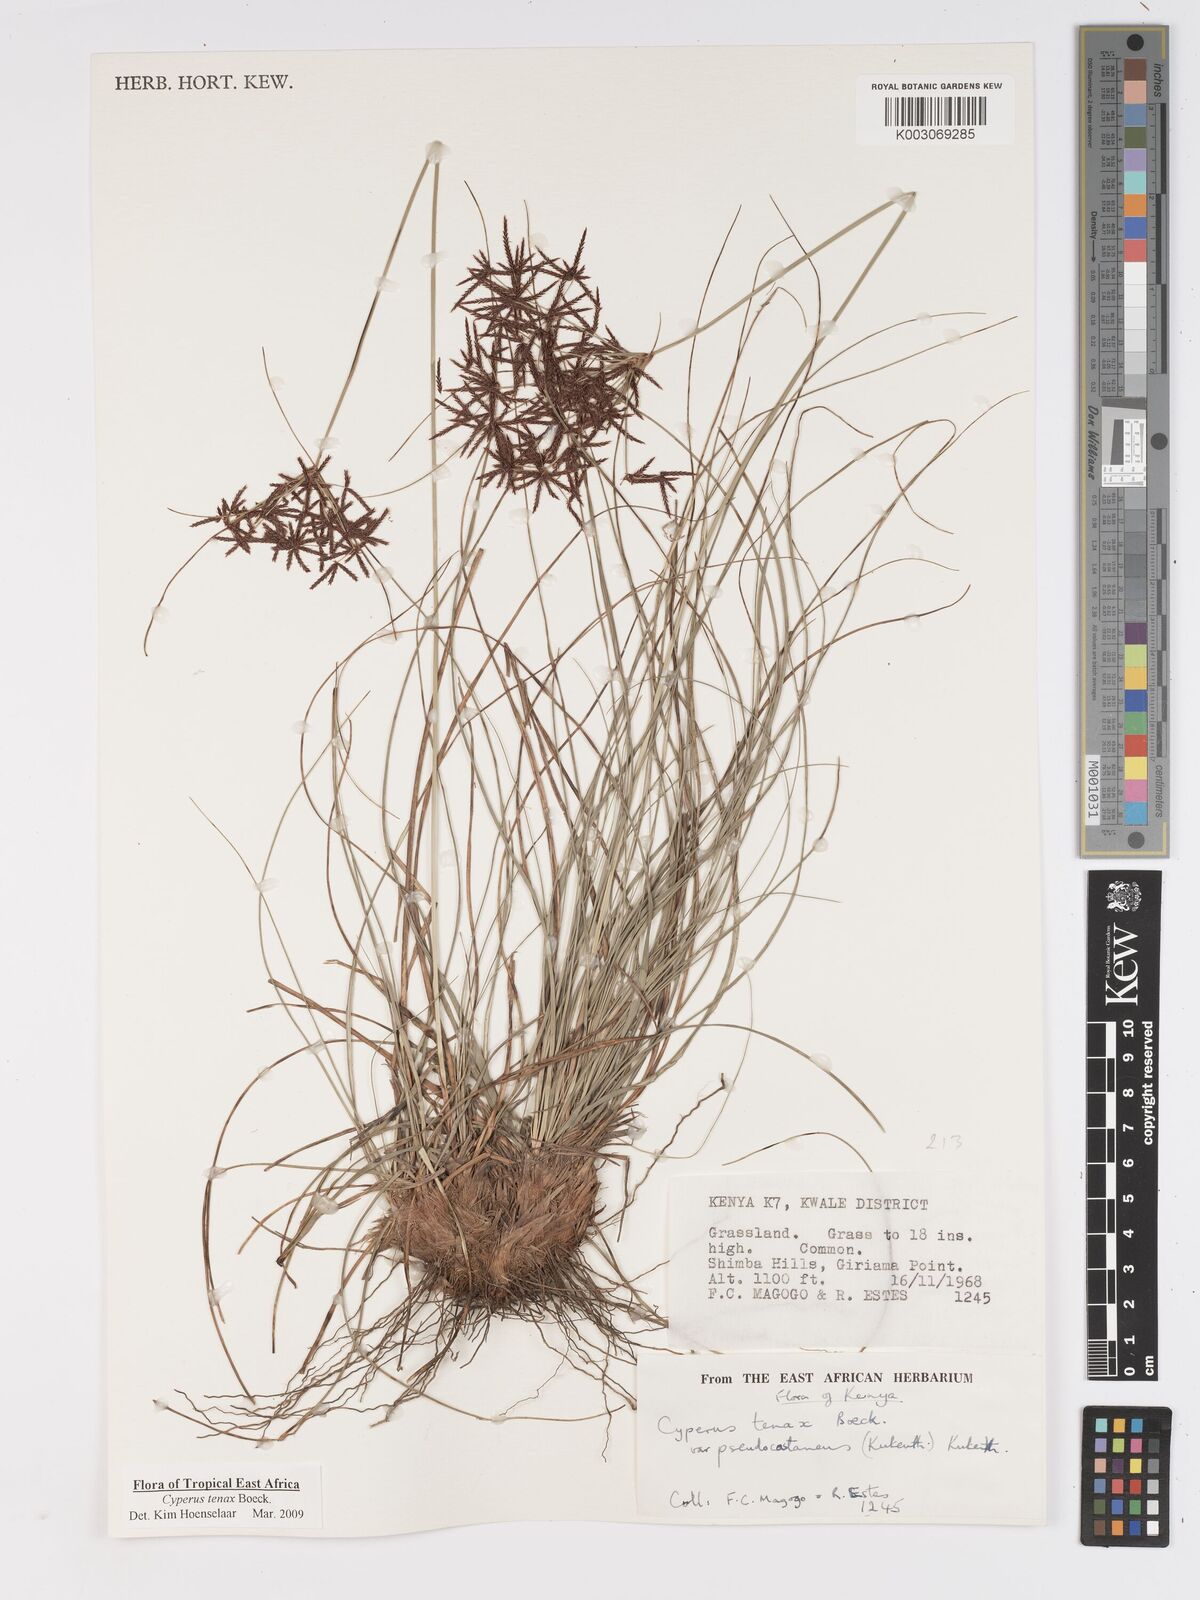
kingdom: Plantae
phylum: Tracheophyta
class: Liliopsida
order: Poales
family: Cyperaceae
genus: Cyperus
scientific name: Cyperus tenax
